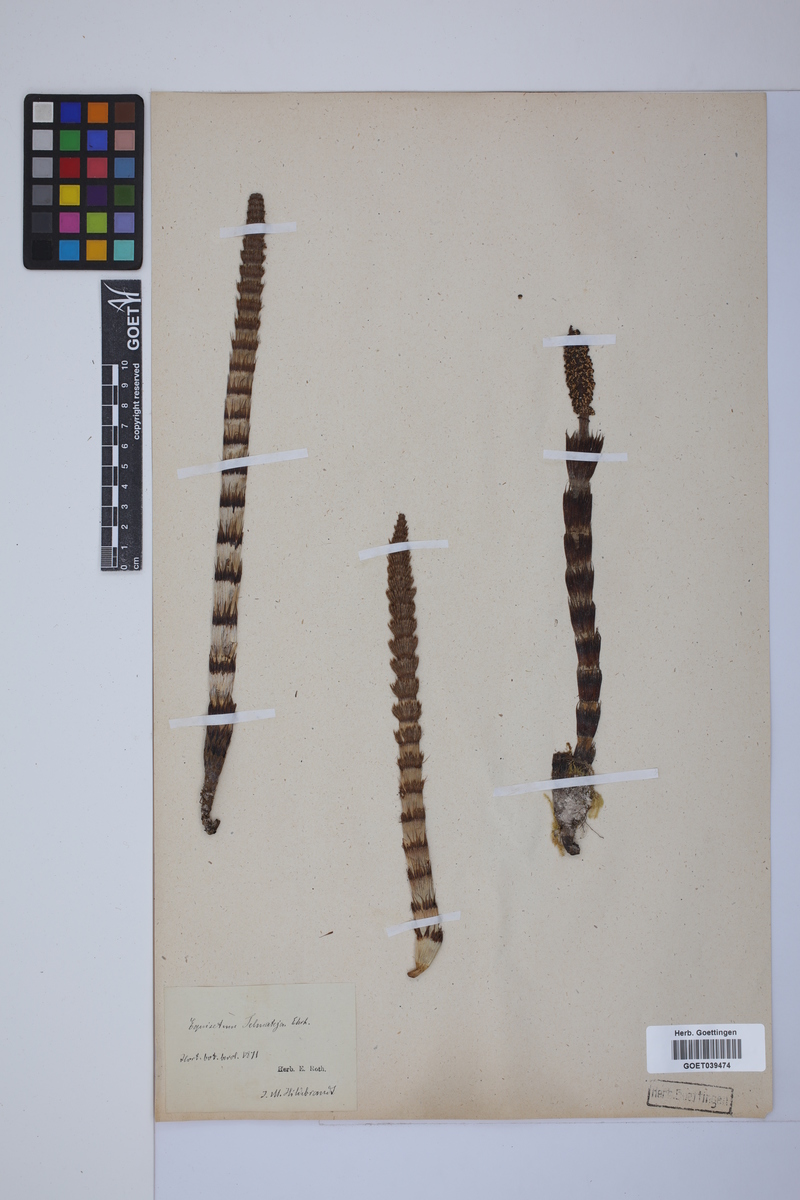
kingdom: Plantae
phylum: Tracheophyta
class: Polypodiopsida
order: Equisetales
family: Equisetaceae
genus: Equisetum
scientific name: Equisetum telmateia
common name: Great horsetail
